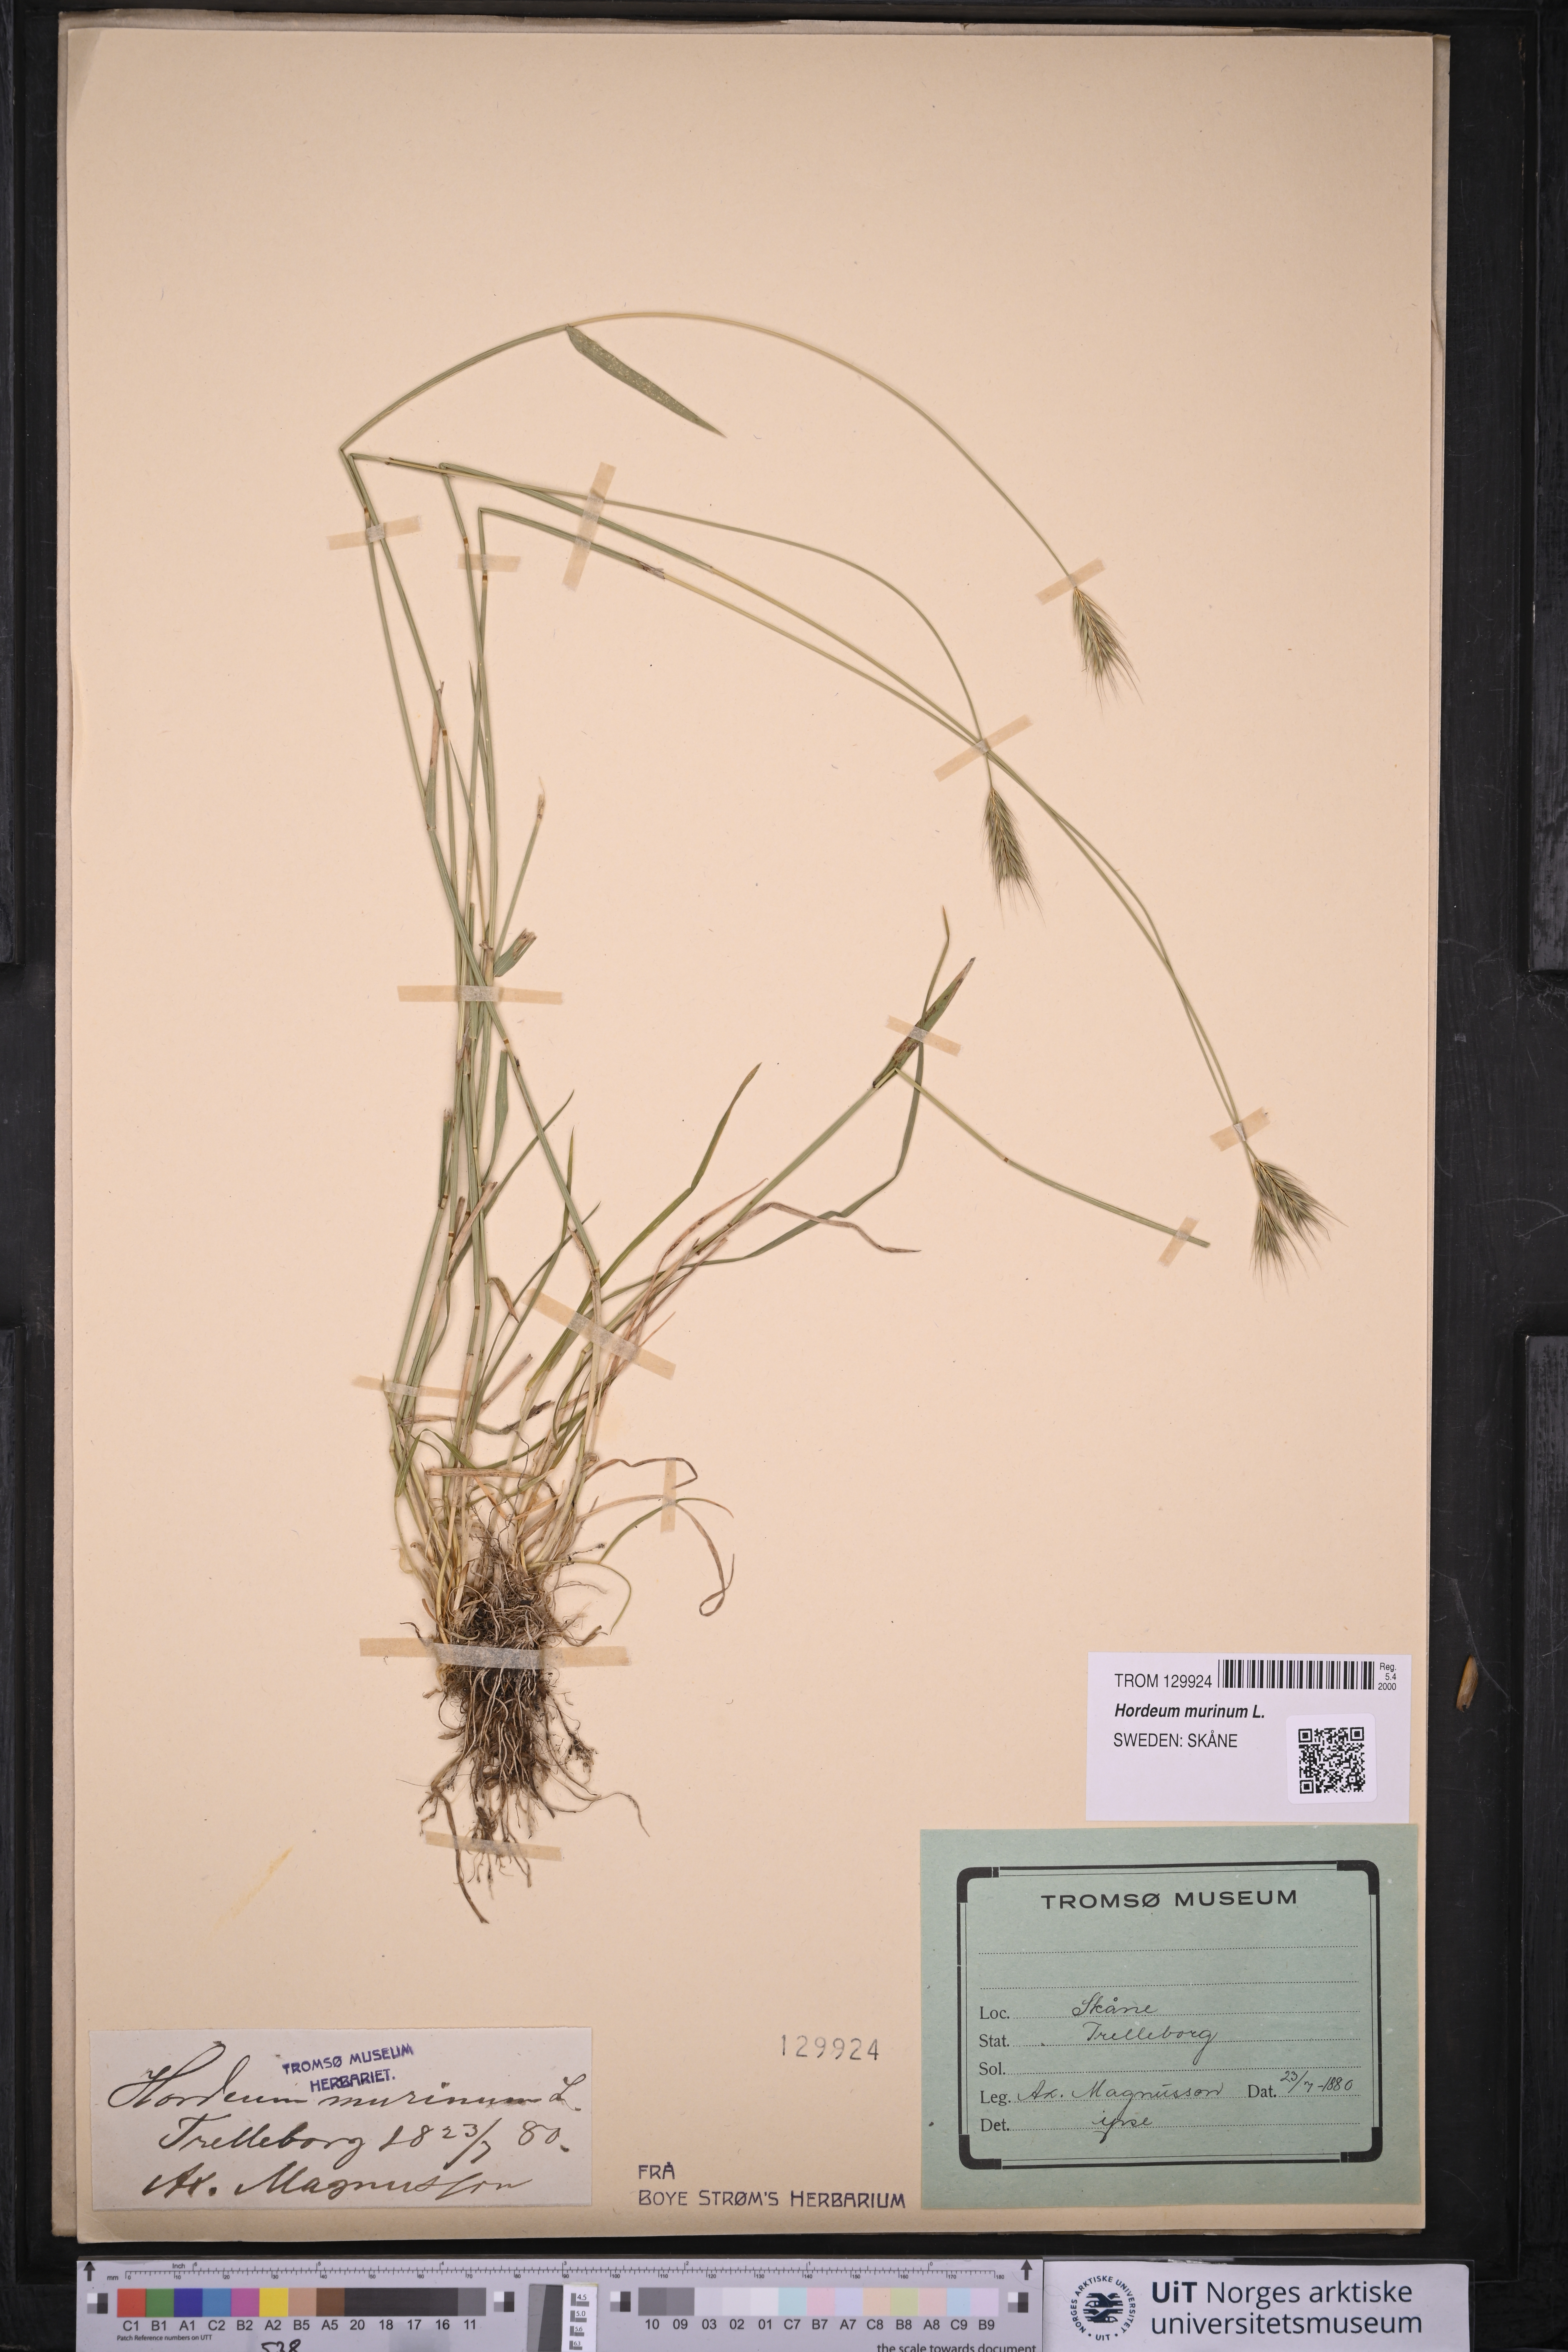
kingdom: Plantae
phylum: Tracheophyta
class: Liliopsida
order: Poales
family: Poaceae
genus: Hordeum
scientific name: Hordeum murinum
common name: Wall barley
